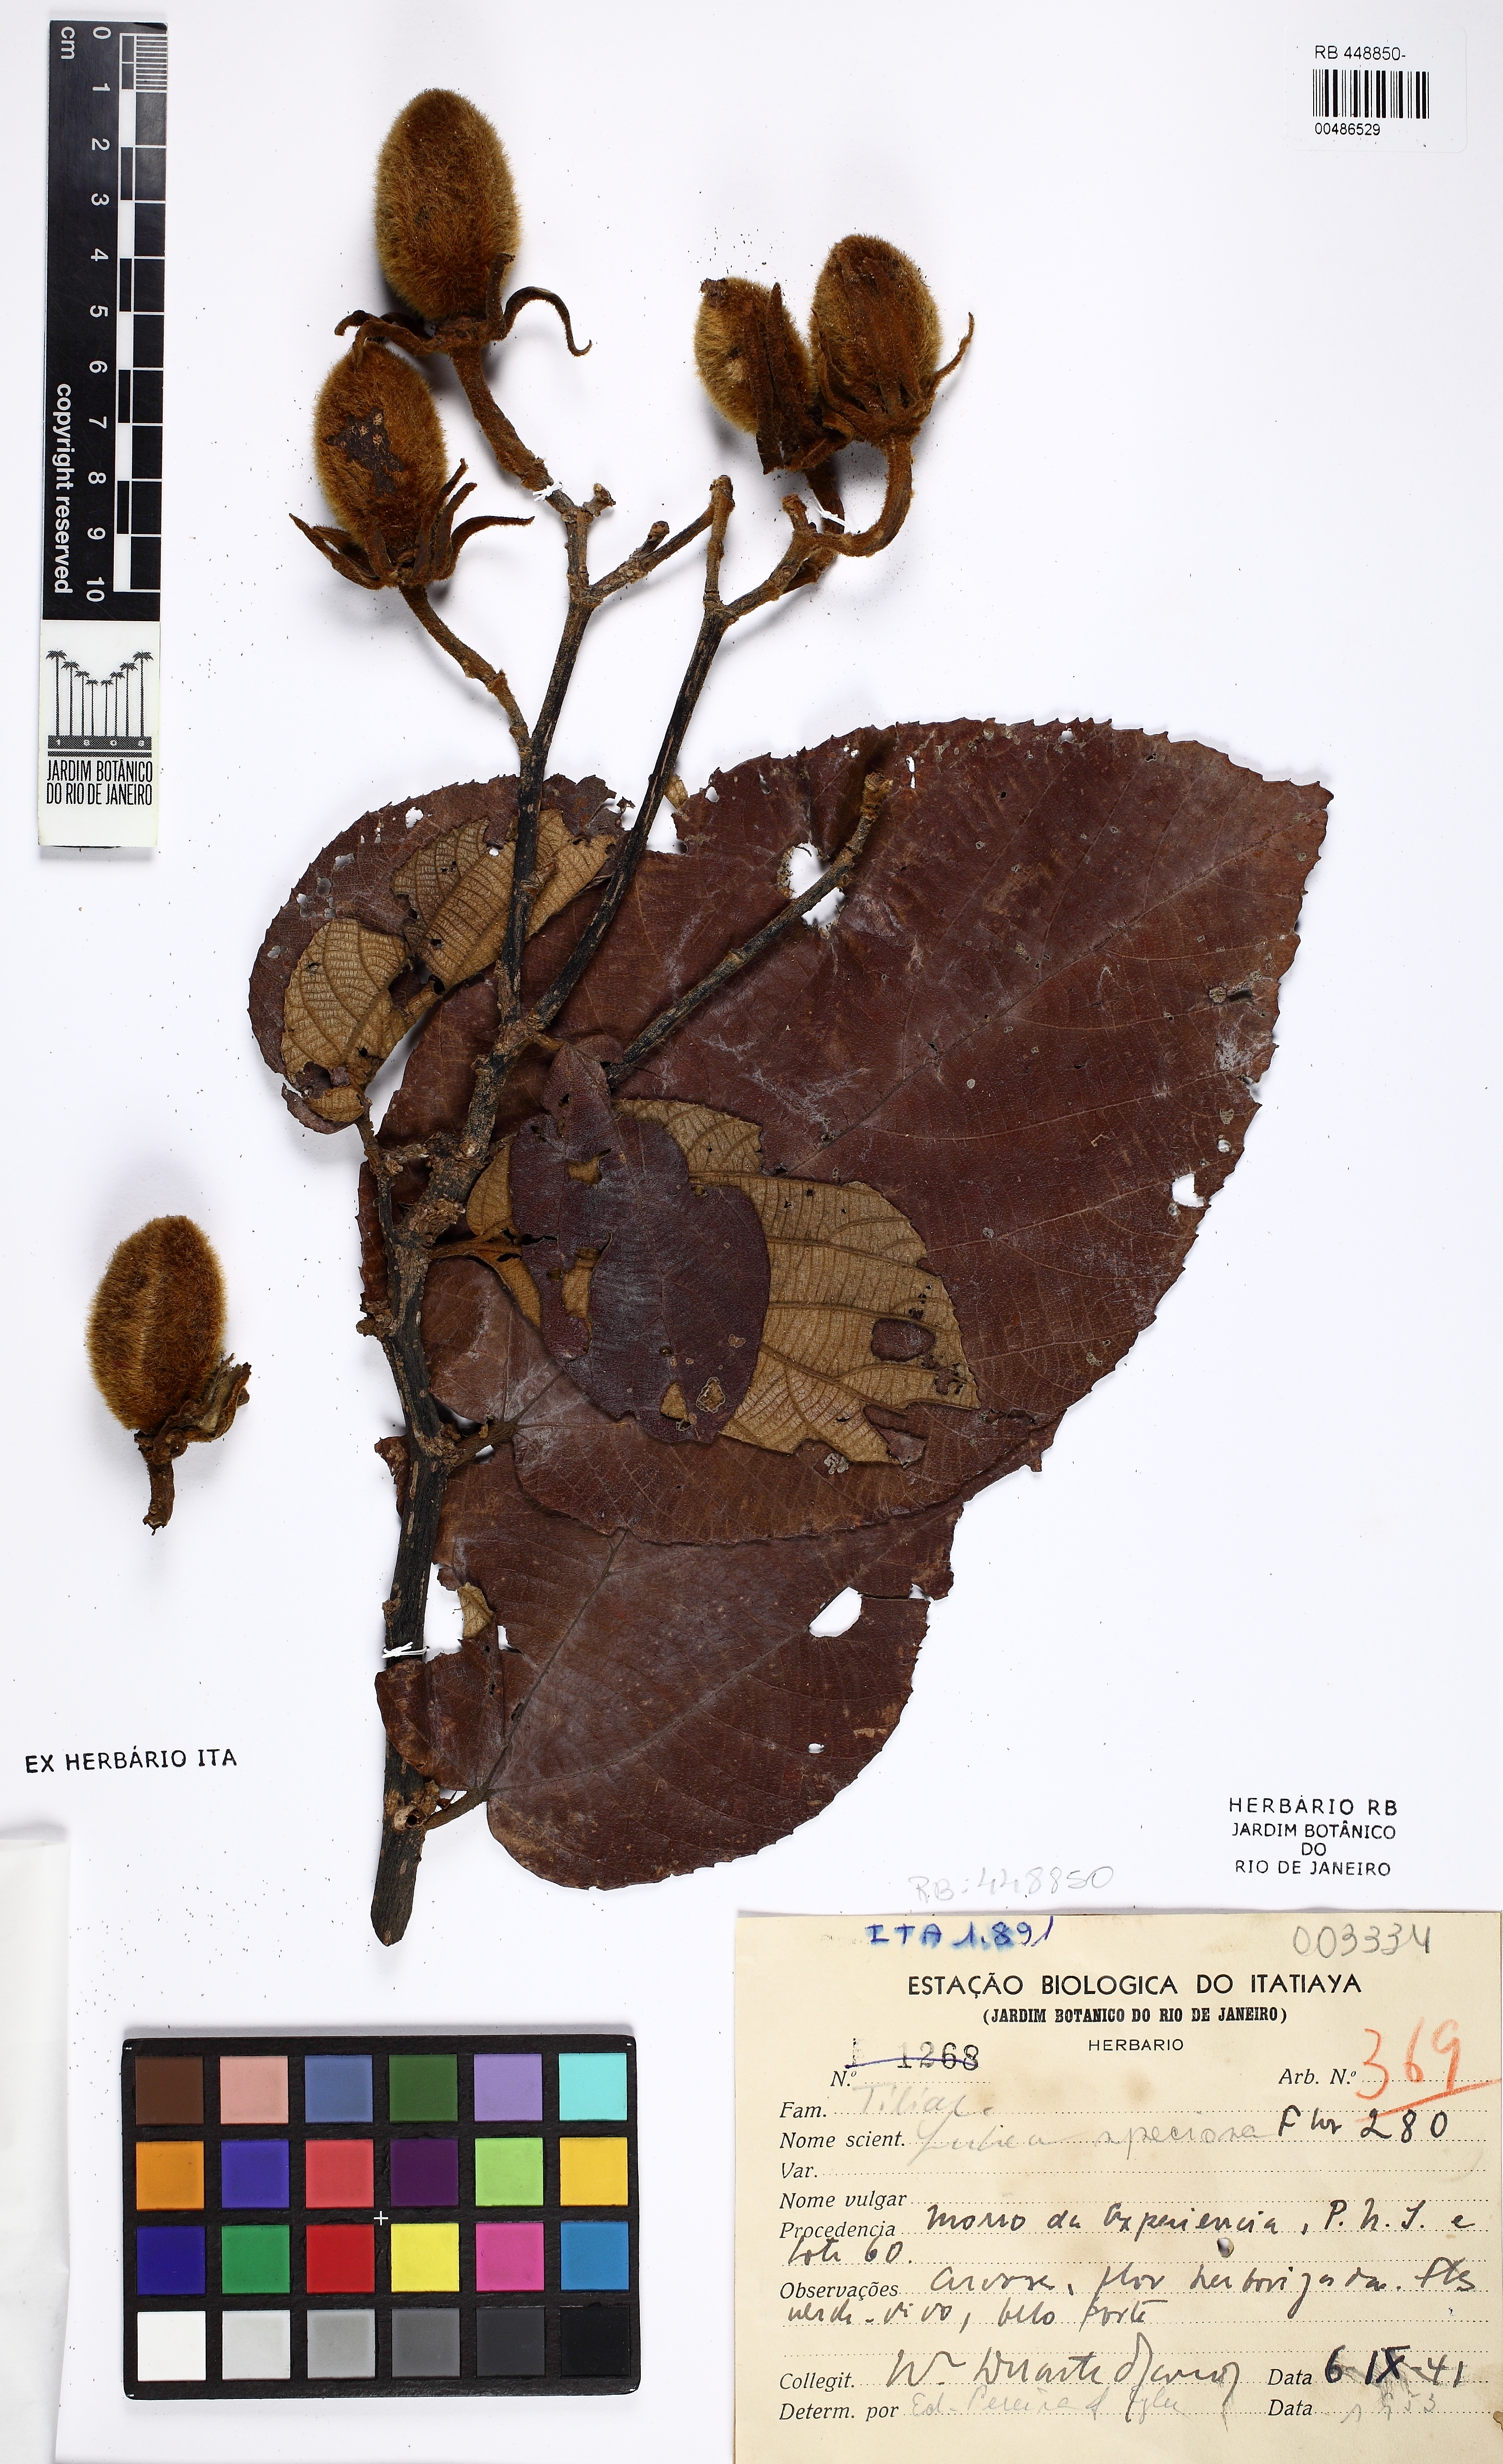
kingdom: Plantae
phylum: Tracheophyta
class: Magnoliopsida
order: Malvales
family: Malvaceae
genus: Luehea
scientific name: Luehea speciosa
